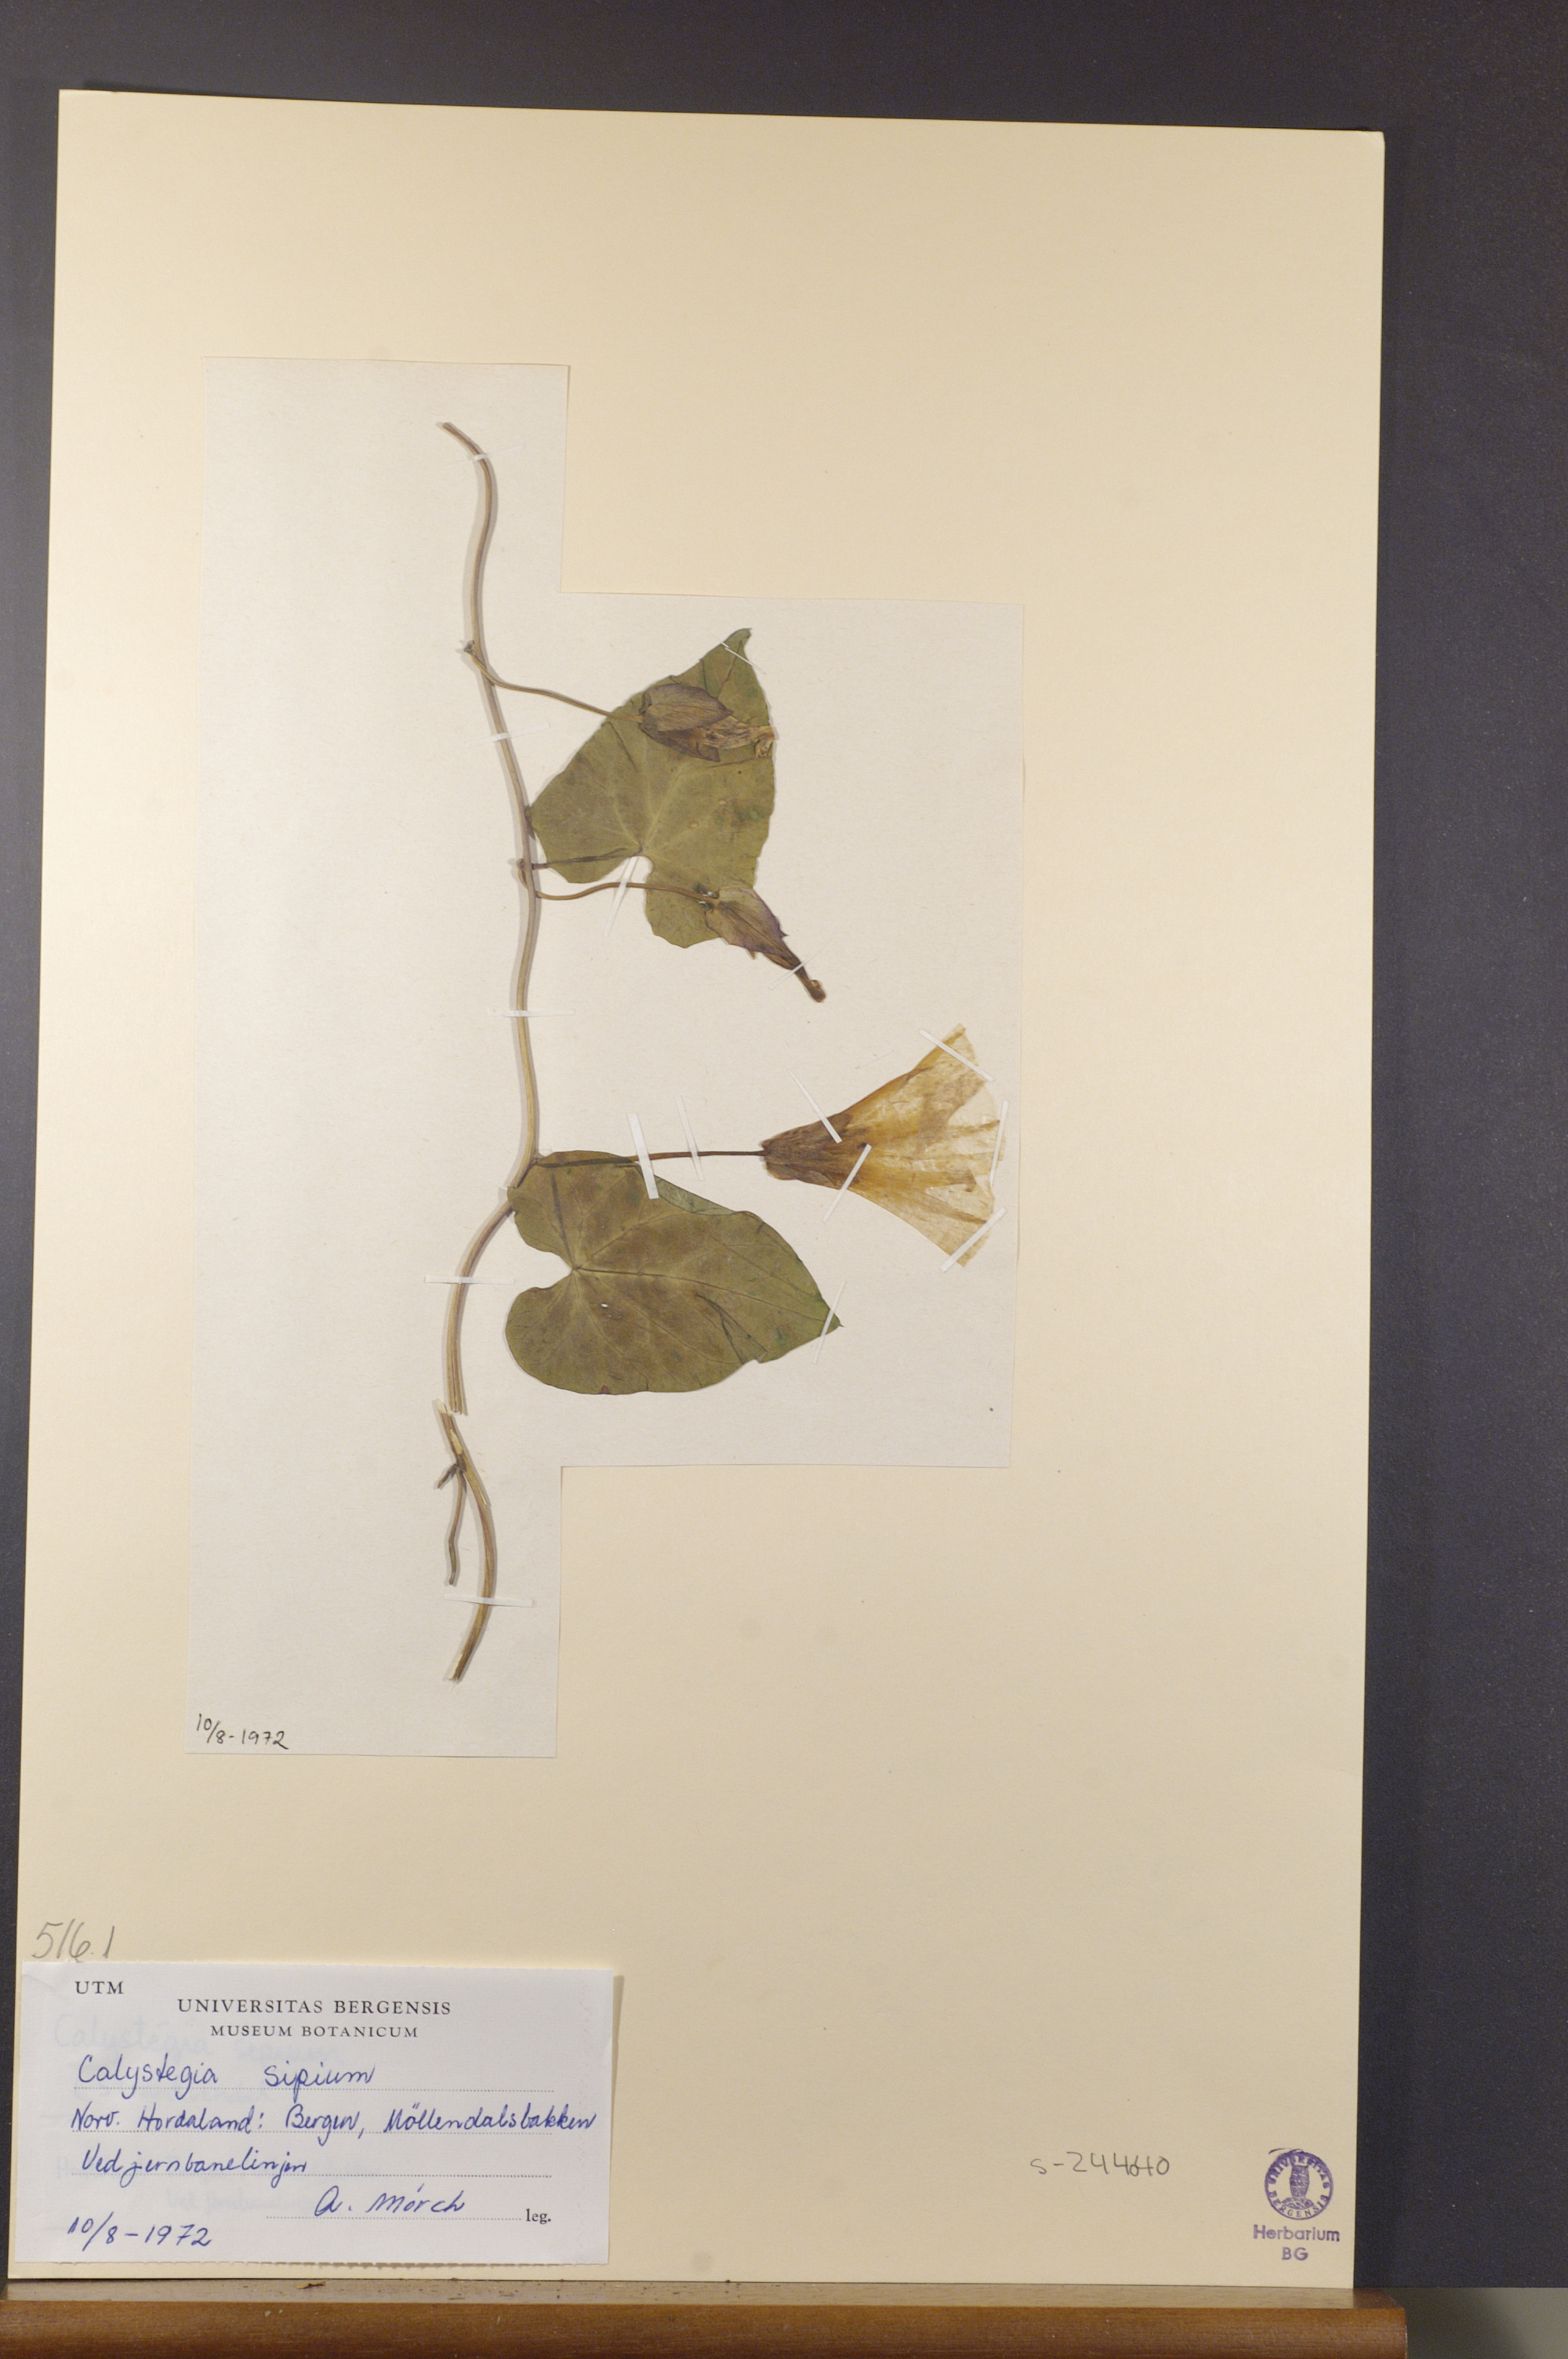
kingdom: Plantae
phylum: Tracheophyta
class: Magnoliopsida
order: Solanales
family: Convolvulaceae
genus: Calystegia
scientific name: Calystegia sepium
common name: Hedge bindweed
